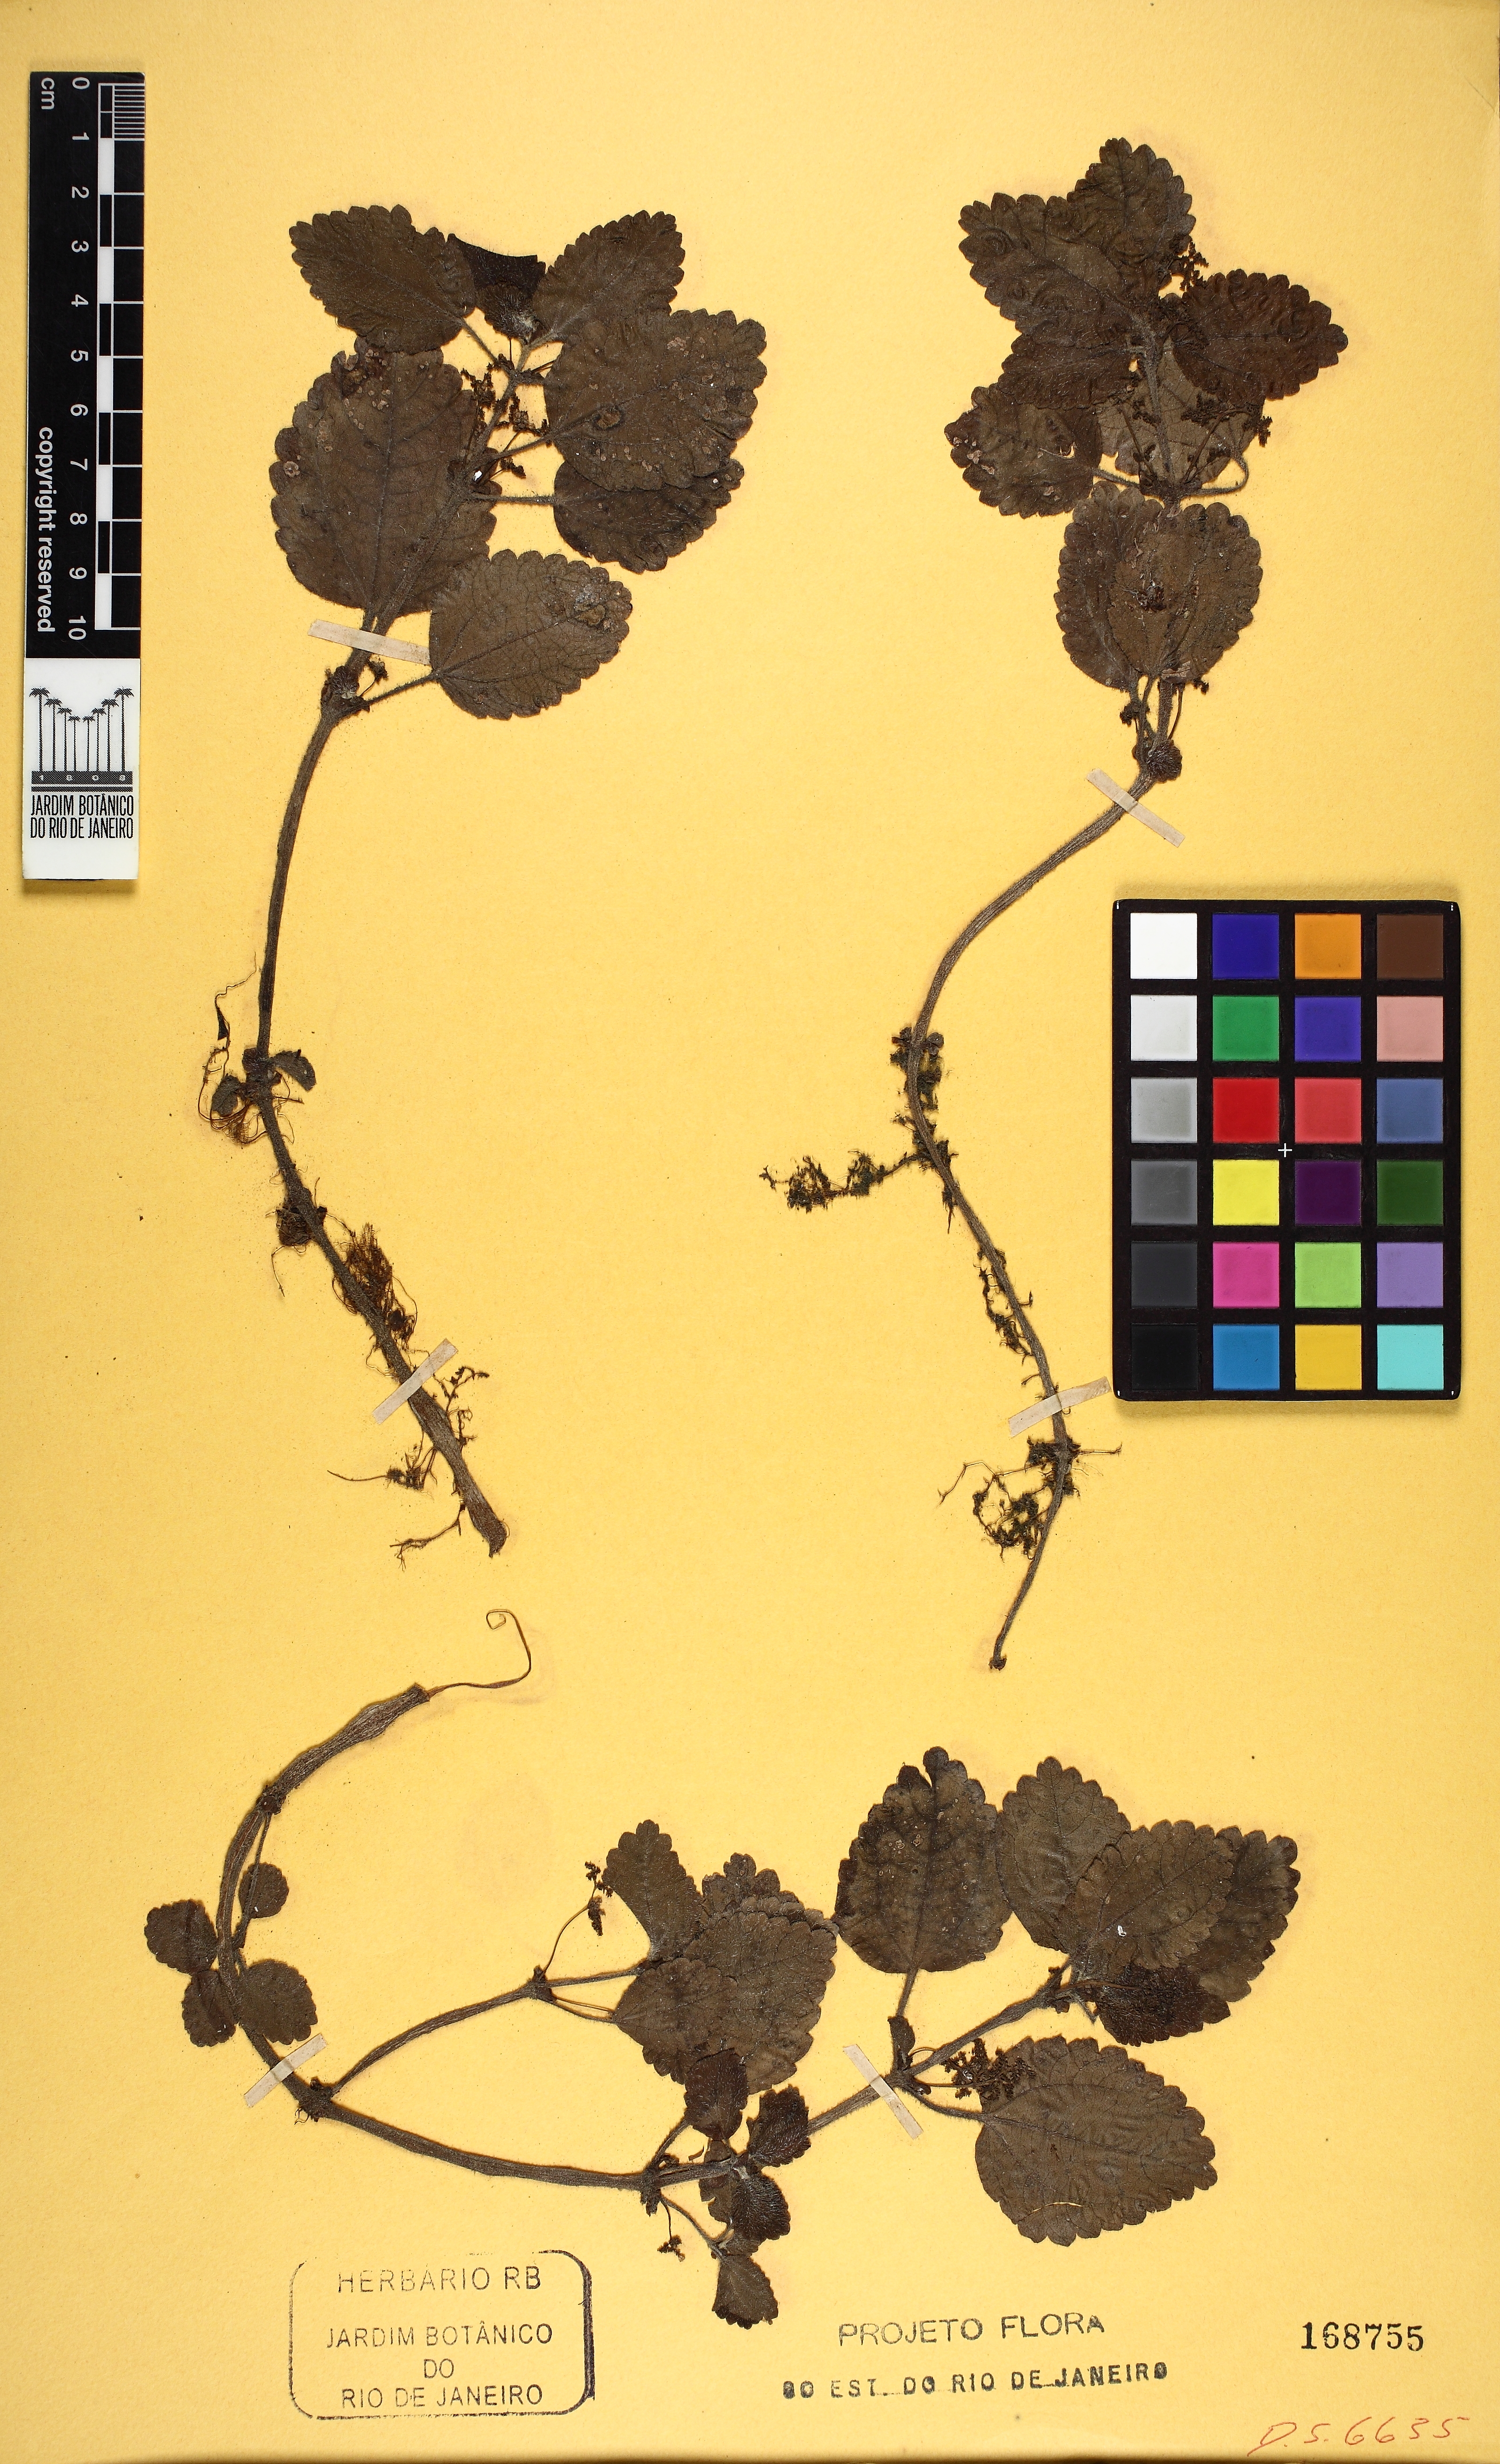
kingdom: Plantae
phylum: Tracheophyta
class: Magnoliopsida
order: Rosales
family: Urticaceae
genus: Pilea
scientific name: Pilea pubescens
